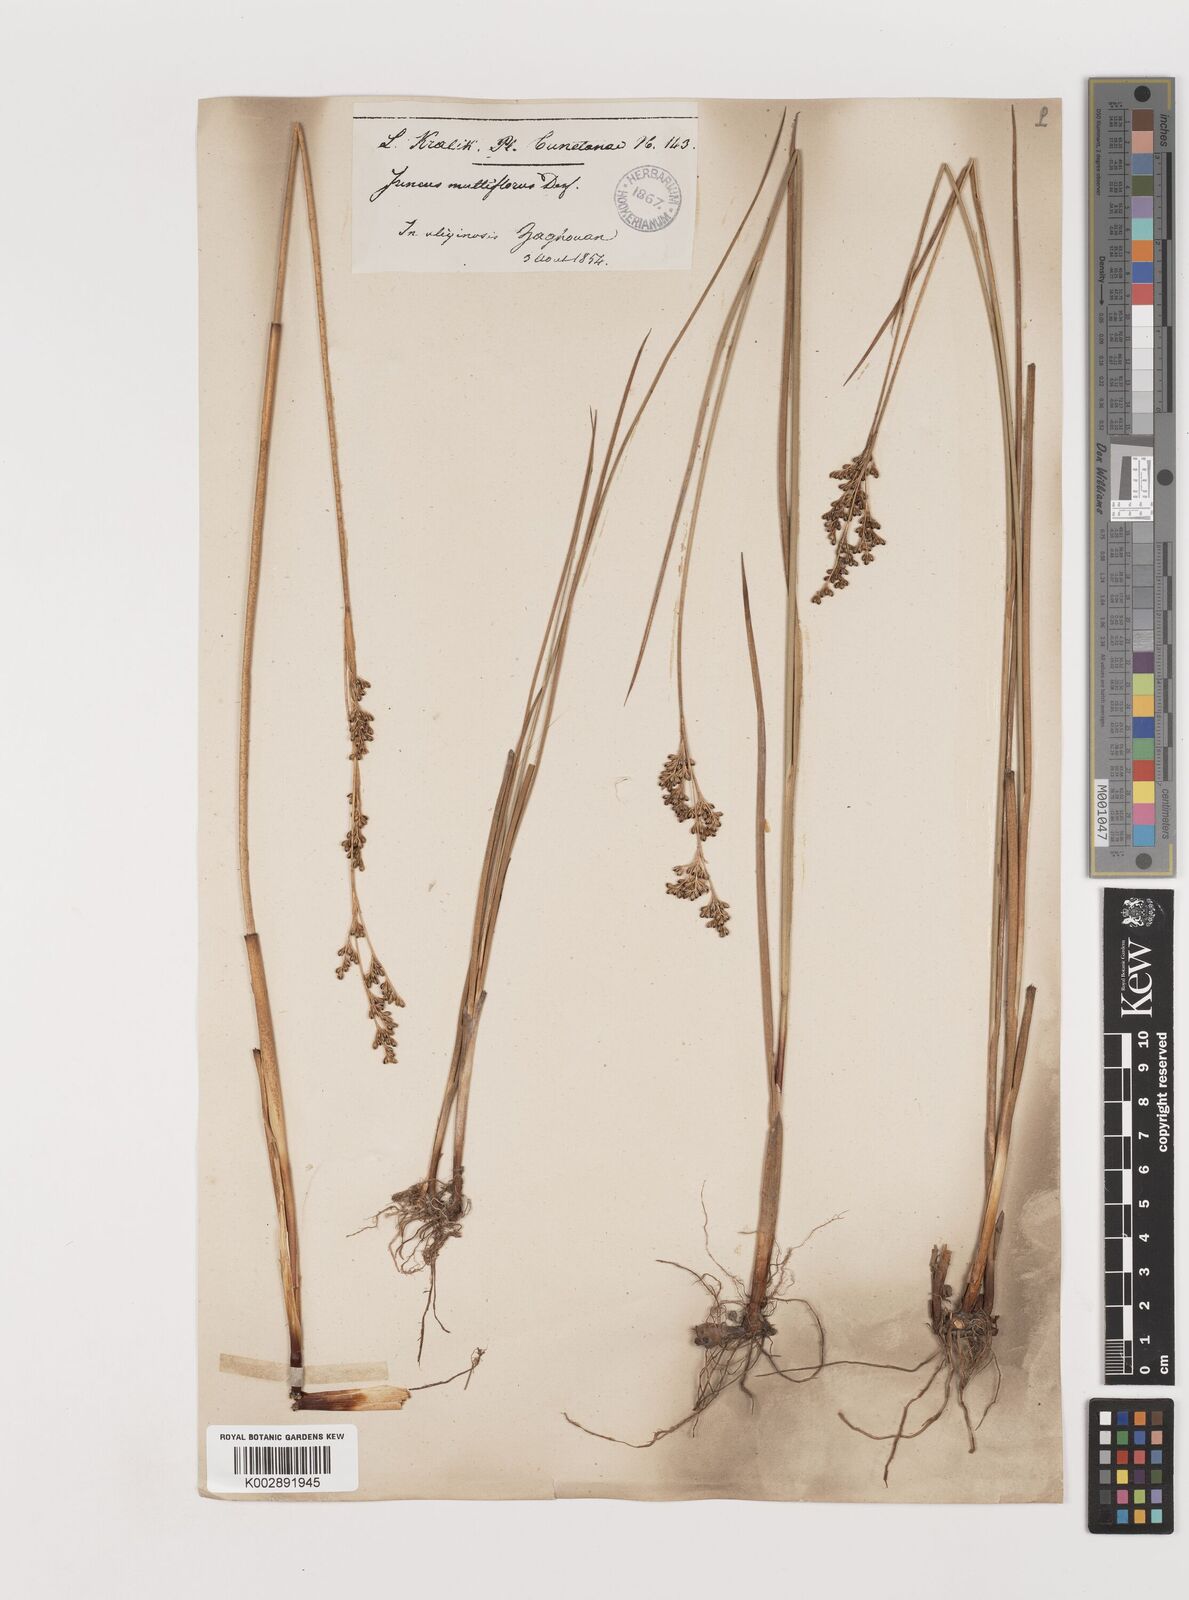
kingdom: Plantae
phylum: Tracheophyta
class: Liliopsida
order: Poales
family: Juncaceae
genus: Juncus
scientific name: Juncus subulatus
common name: Somerset rush
